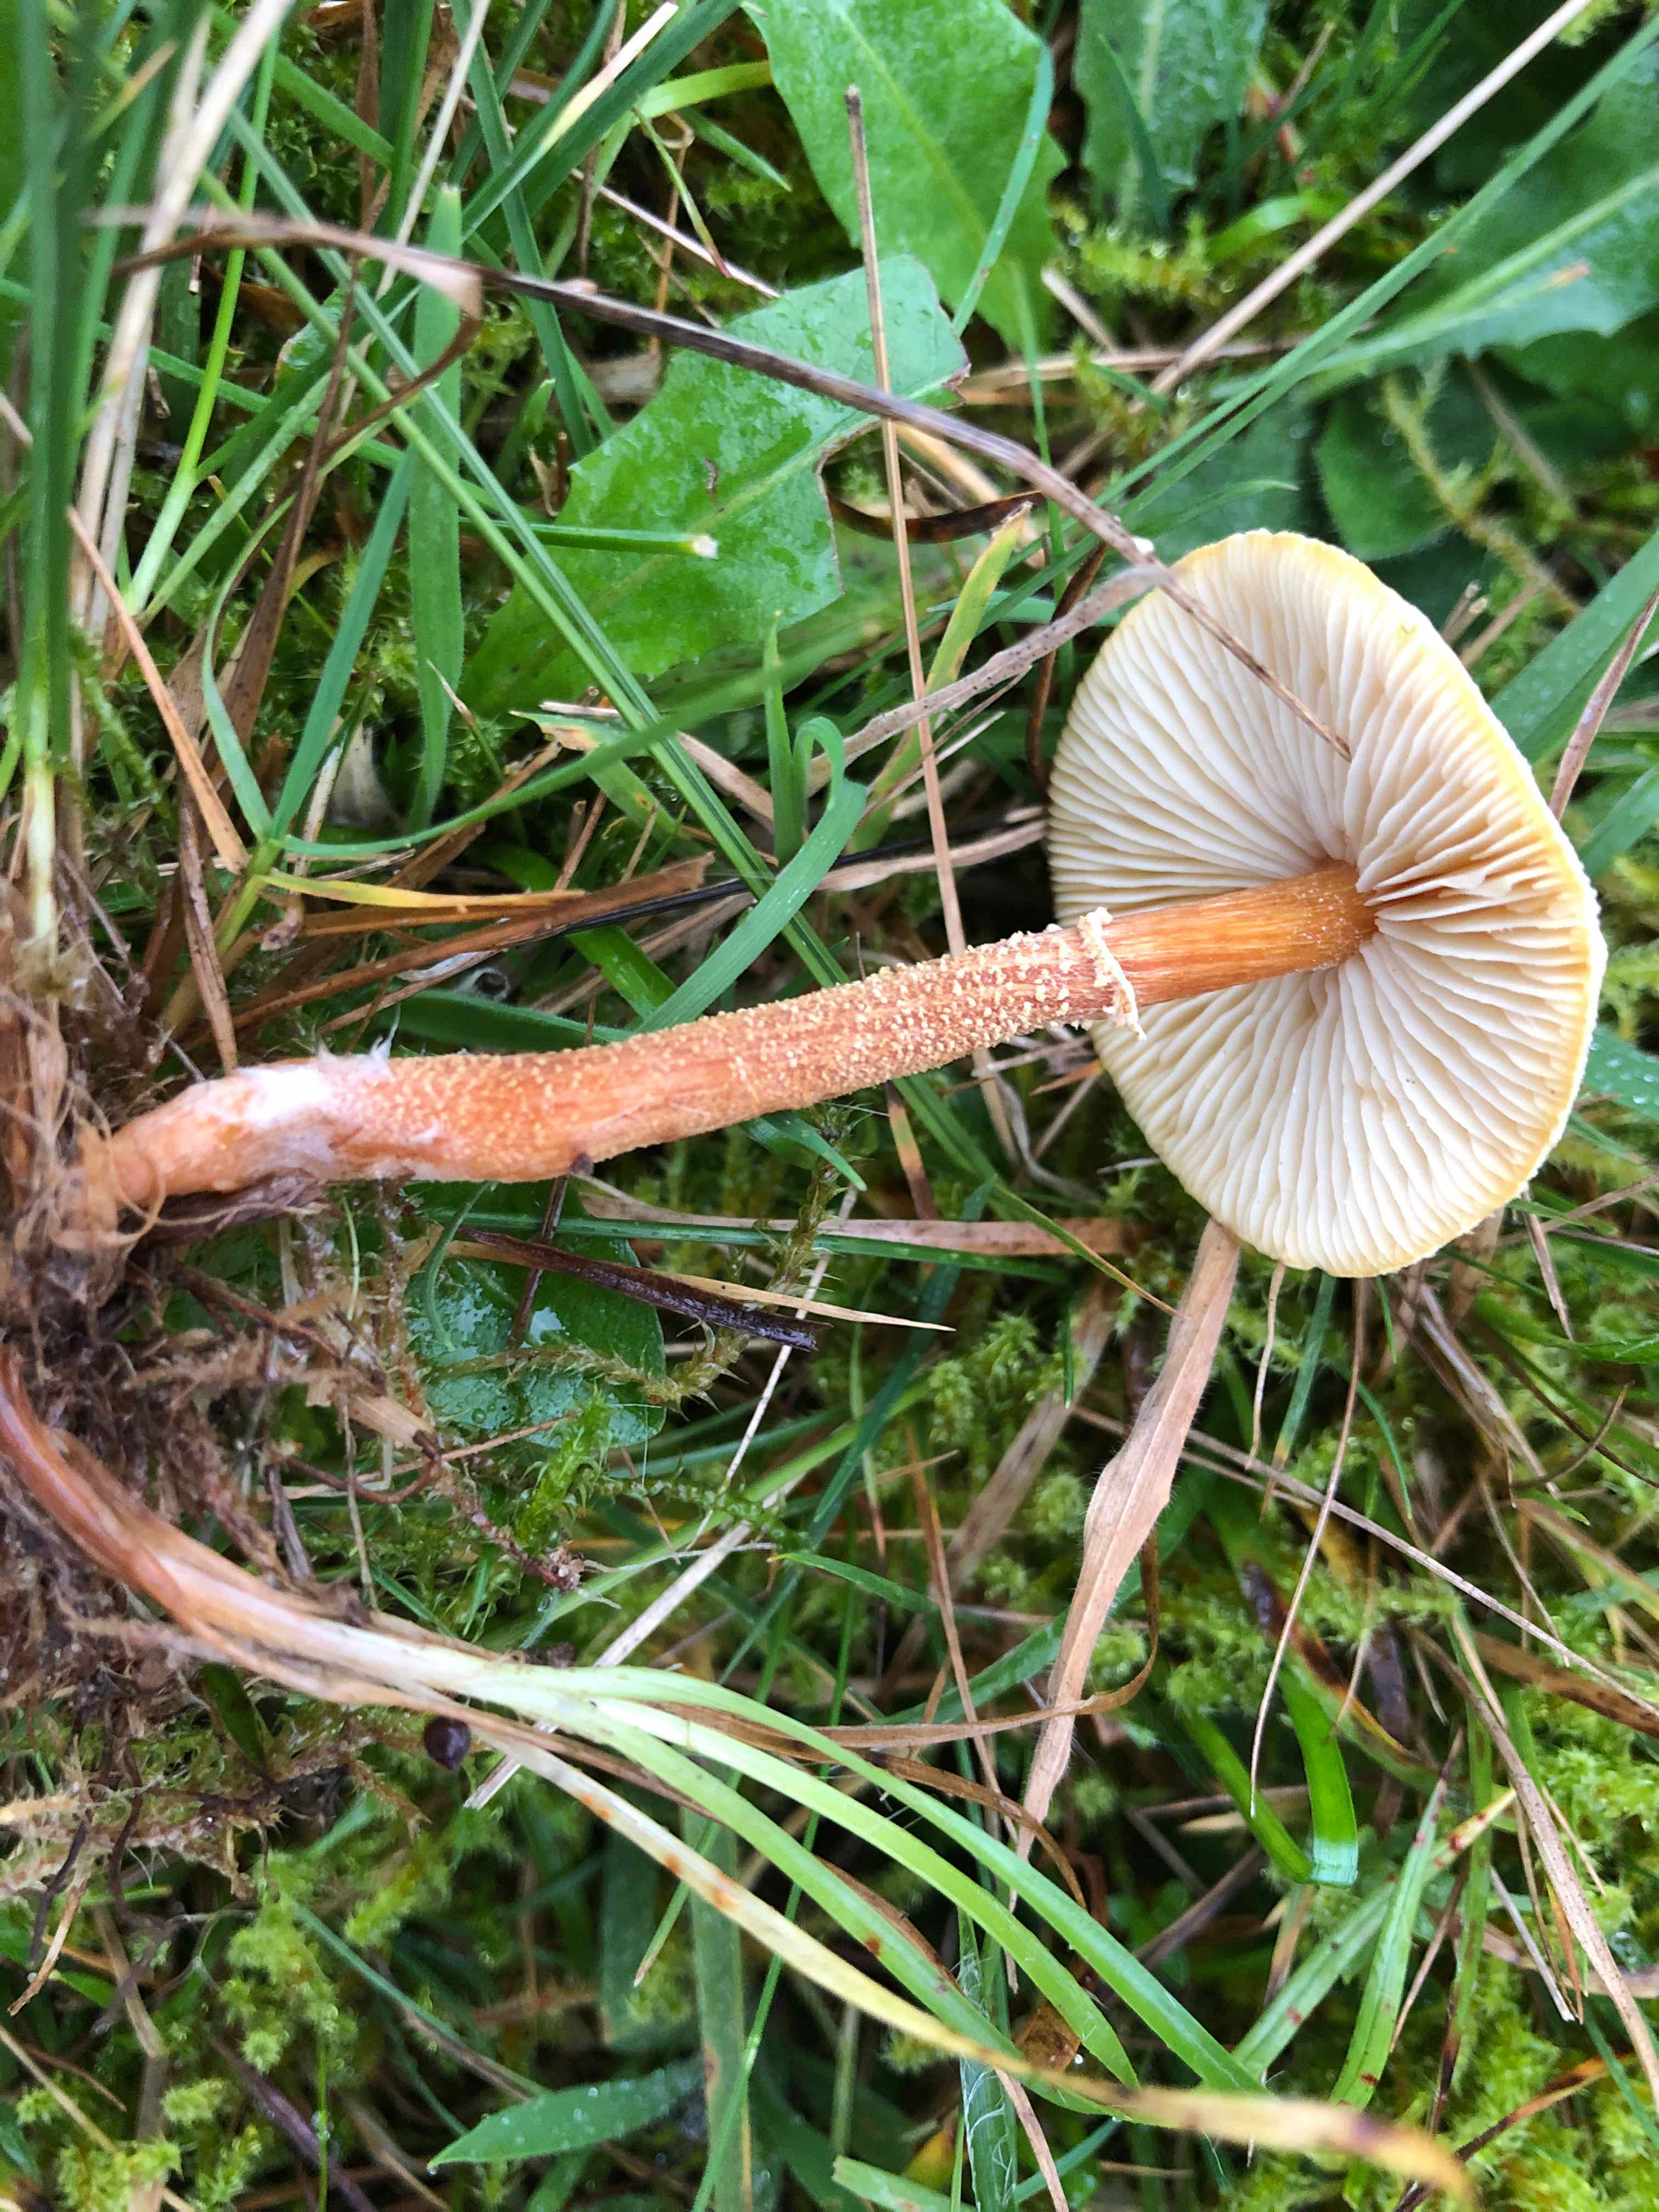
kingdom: Fungi
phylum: Basidiomycota
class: Agaricomycetes
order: Agaricales
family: Tricholomataceae
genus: Cystoderma
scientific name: Cystoderma amianthinum
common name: okkergul grynhat
